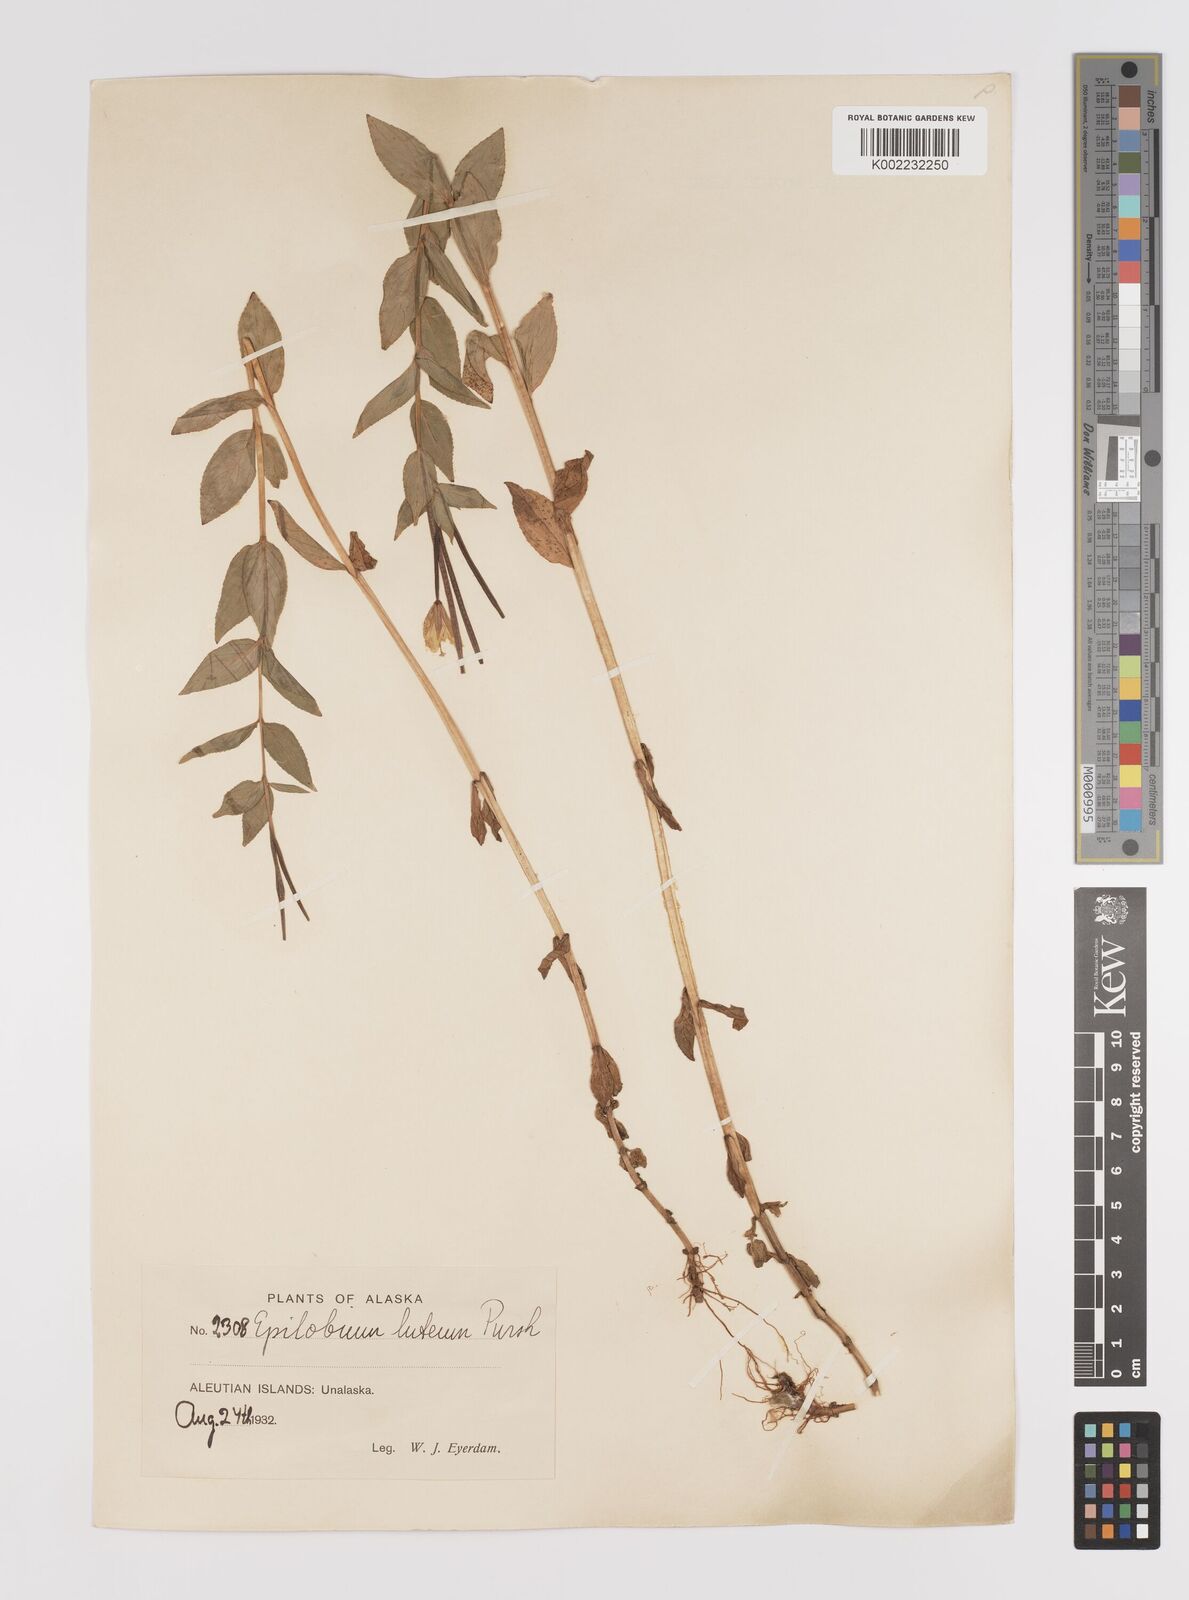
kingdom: Plantae
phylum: Tracheophyta
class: Magnoliopsida
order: Myrtales
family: Onagraceae
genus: Epilobium
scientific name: Epilobium luteum
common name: Yellow willowherb
